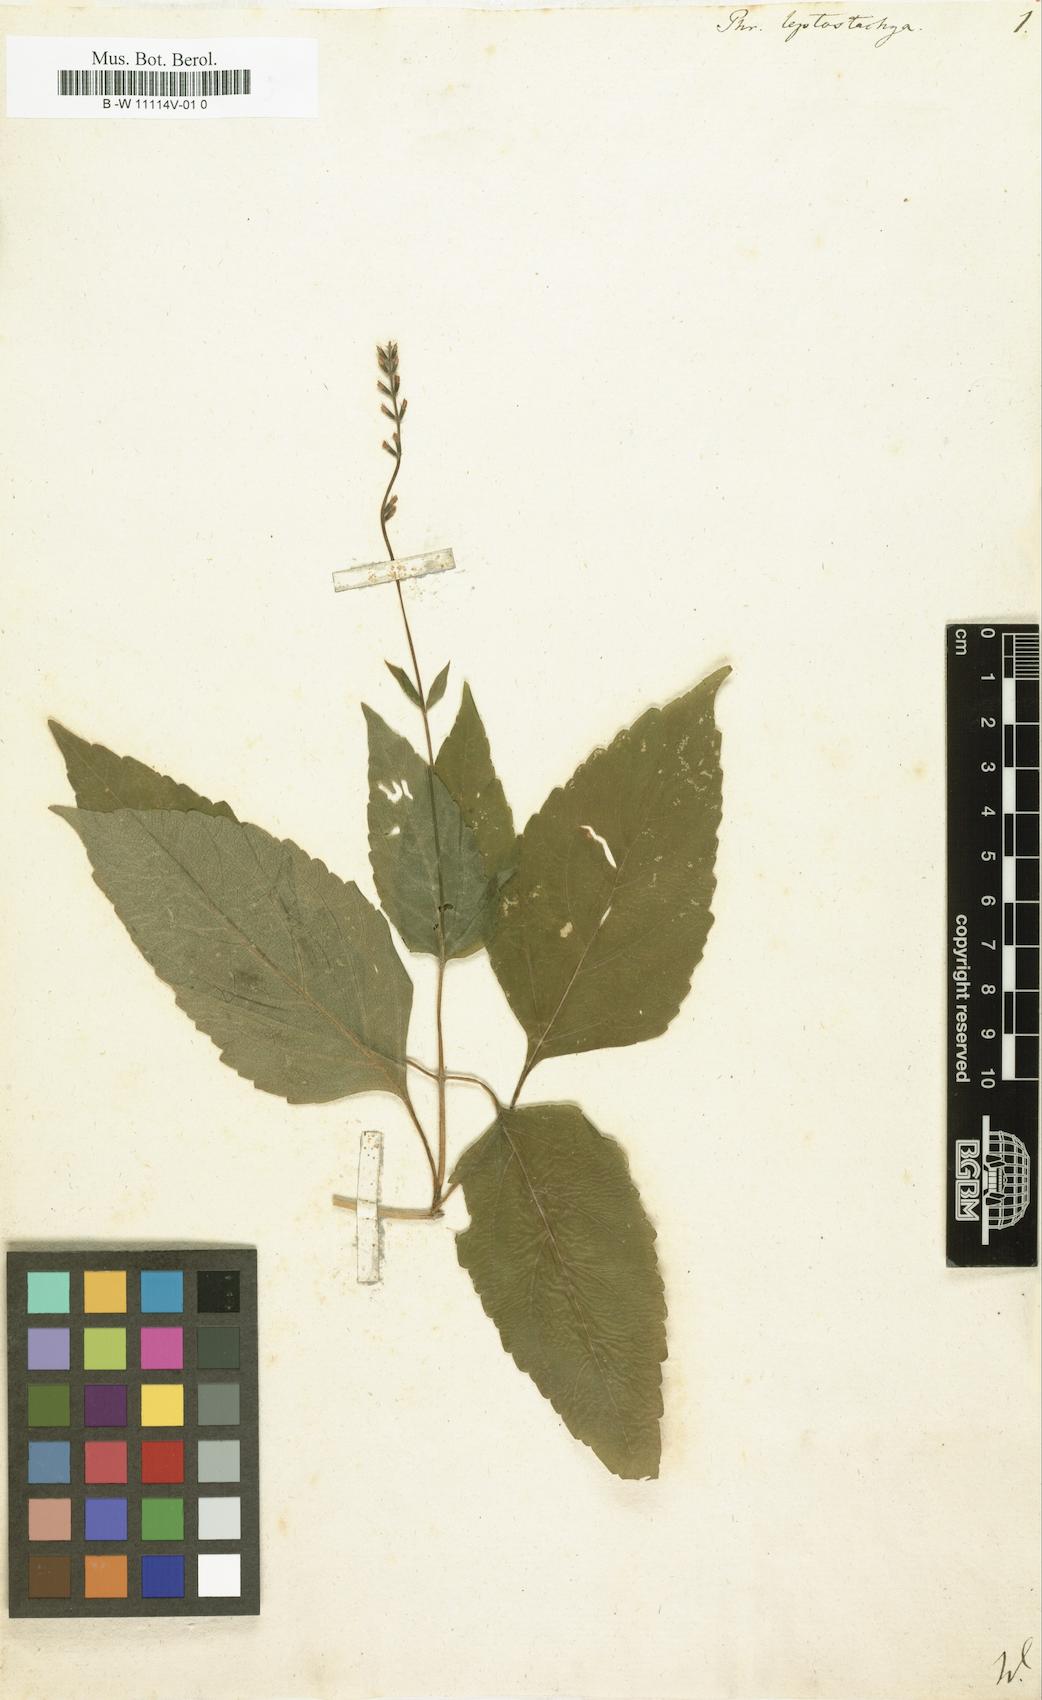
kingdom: Plantae
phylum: Tracheophyta
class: Magnoliopsida
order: Lamiales
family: Phrymaceae
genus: Phryma
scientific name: Phryma leptostachya
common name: American lopseed
